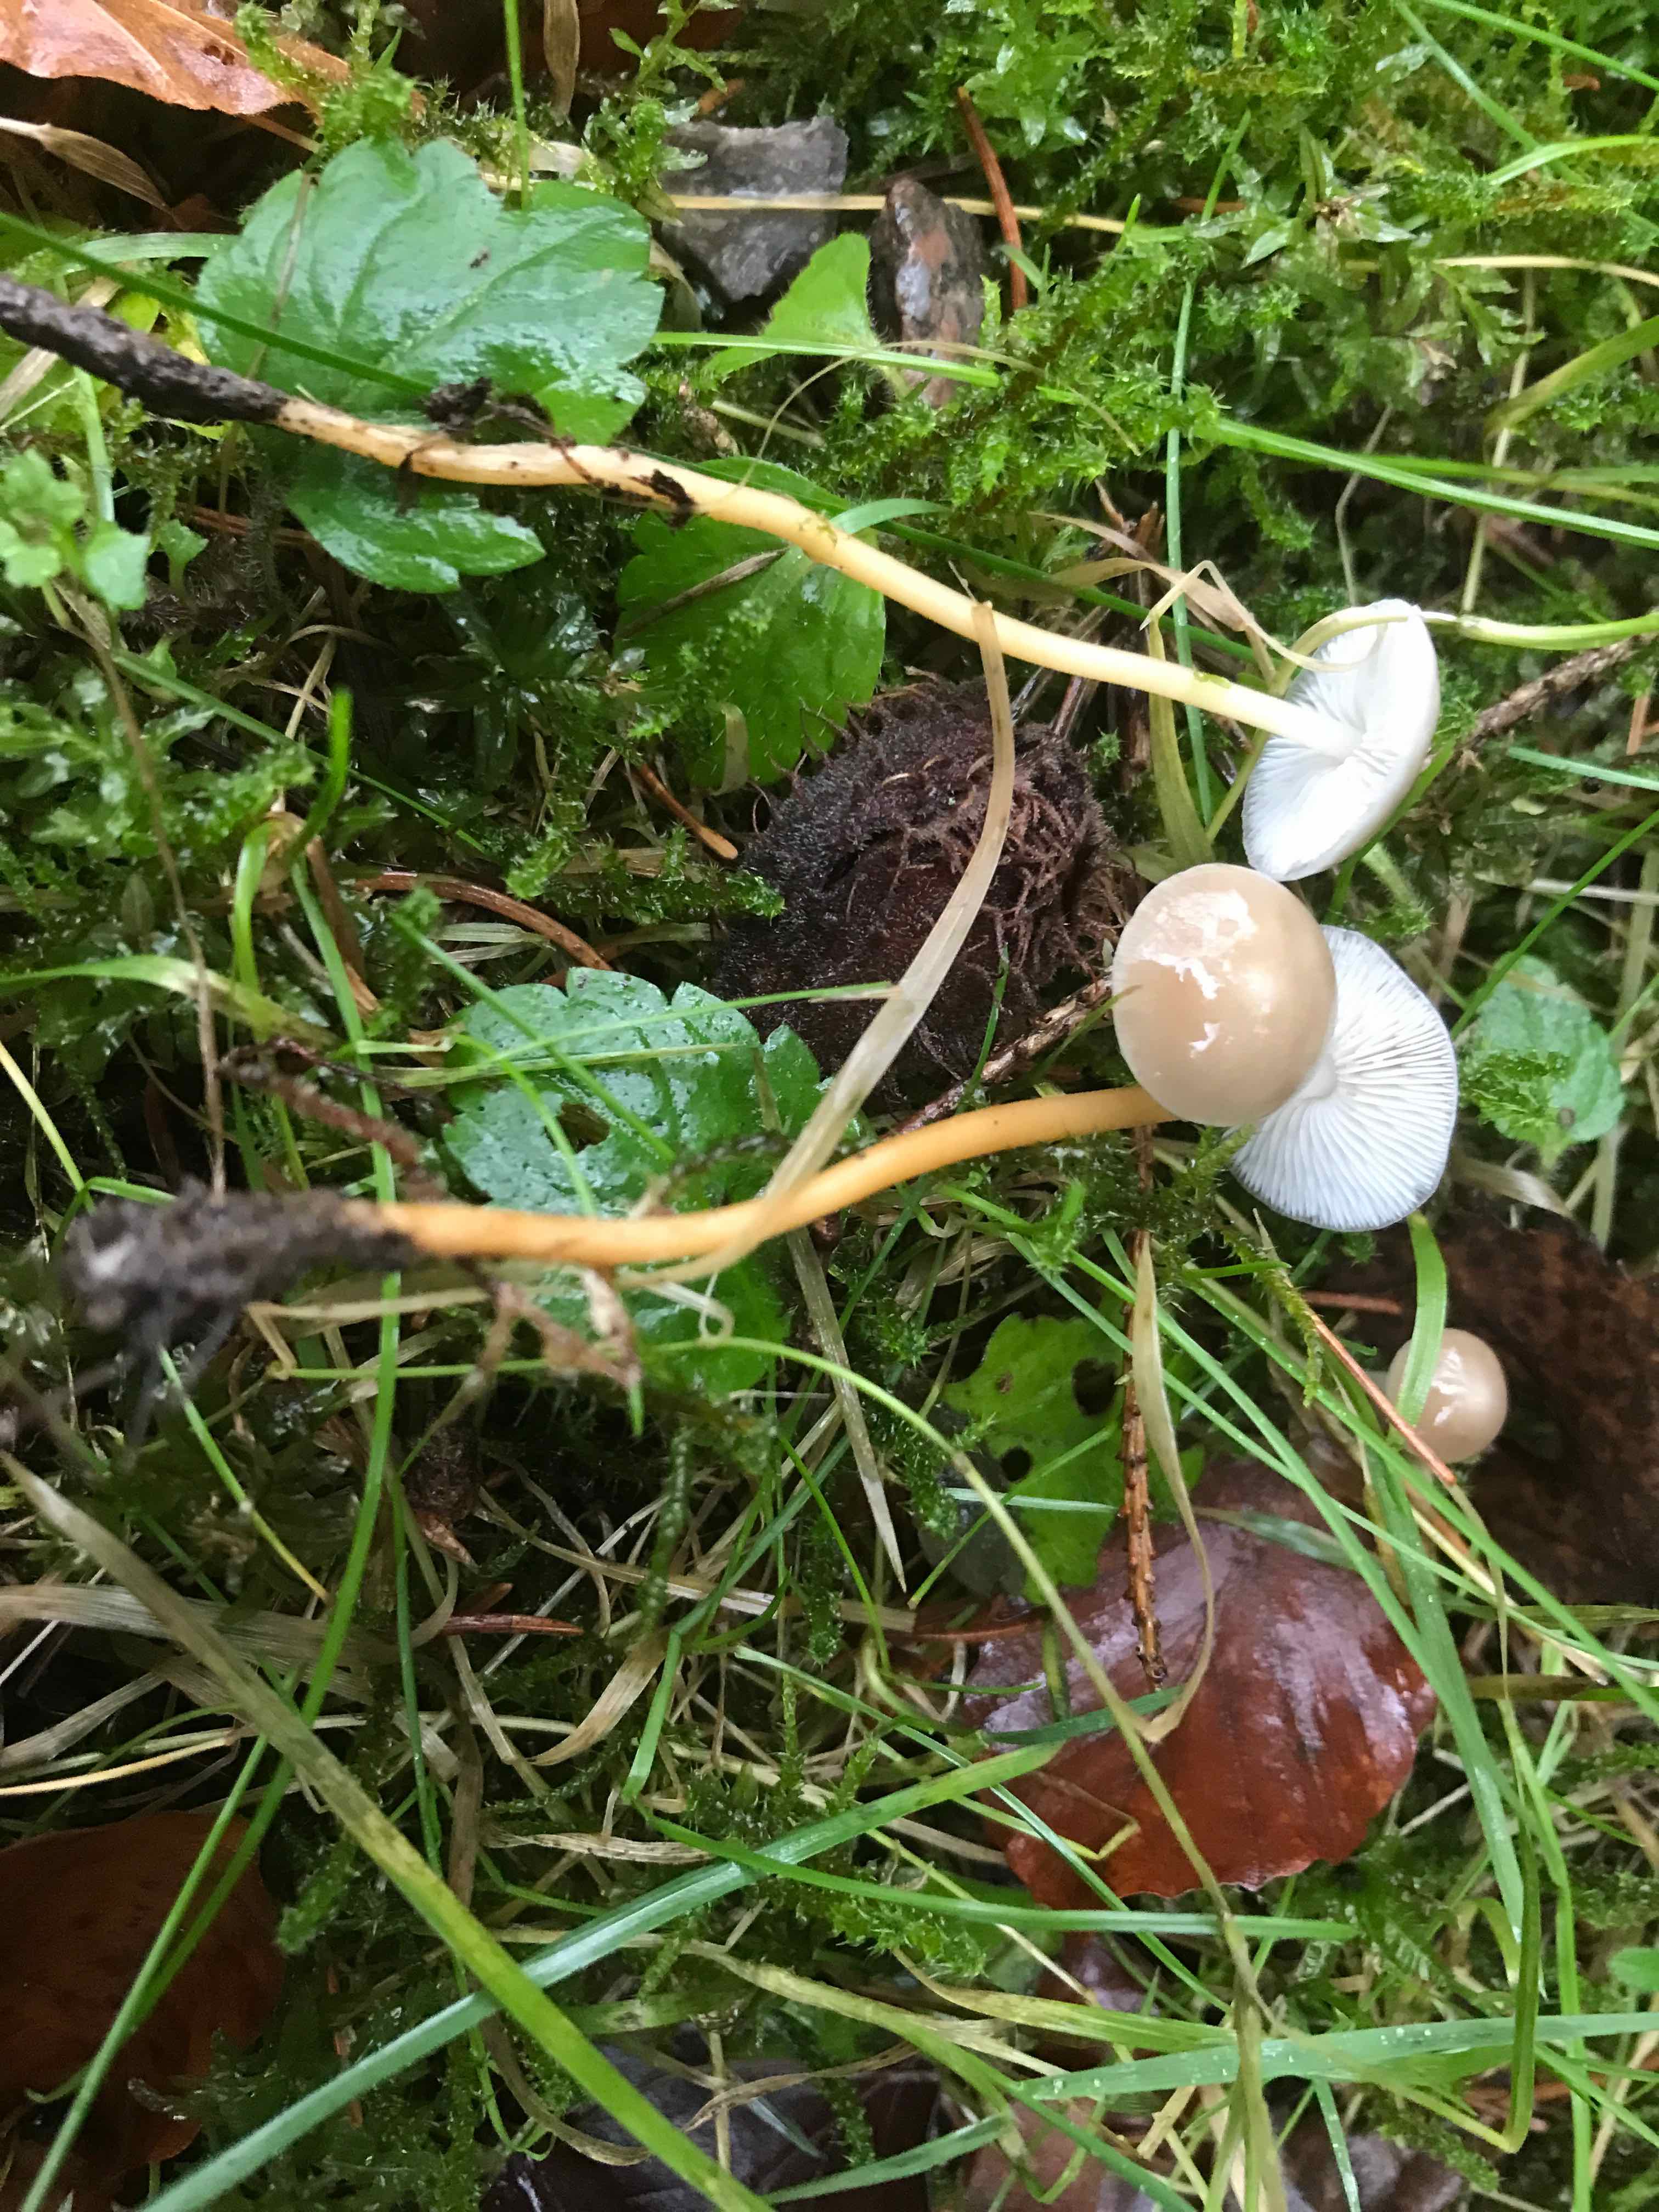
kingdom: Fungi
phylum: Basidiomycota
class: Agaricomycetes
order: Agaricales
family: Physalacriaceae
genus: Strobilurus
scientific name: Strobilurus esculentus
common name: gran-koglehat
